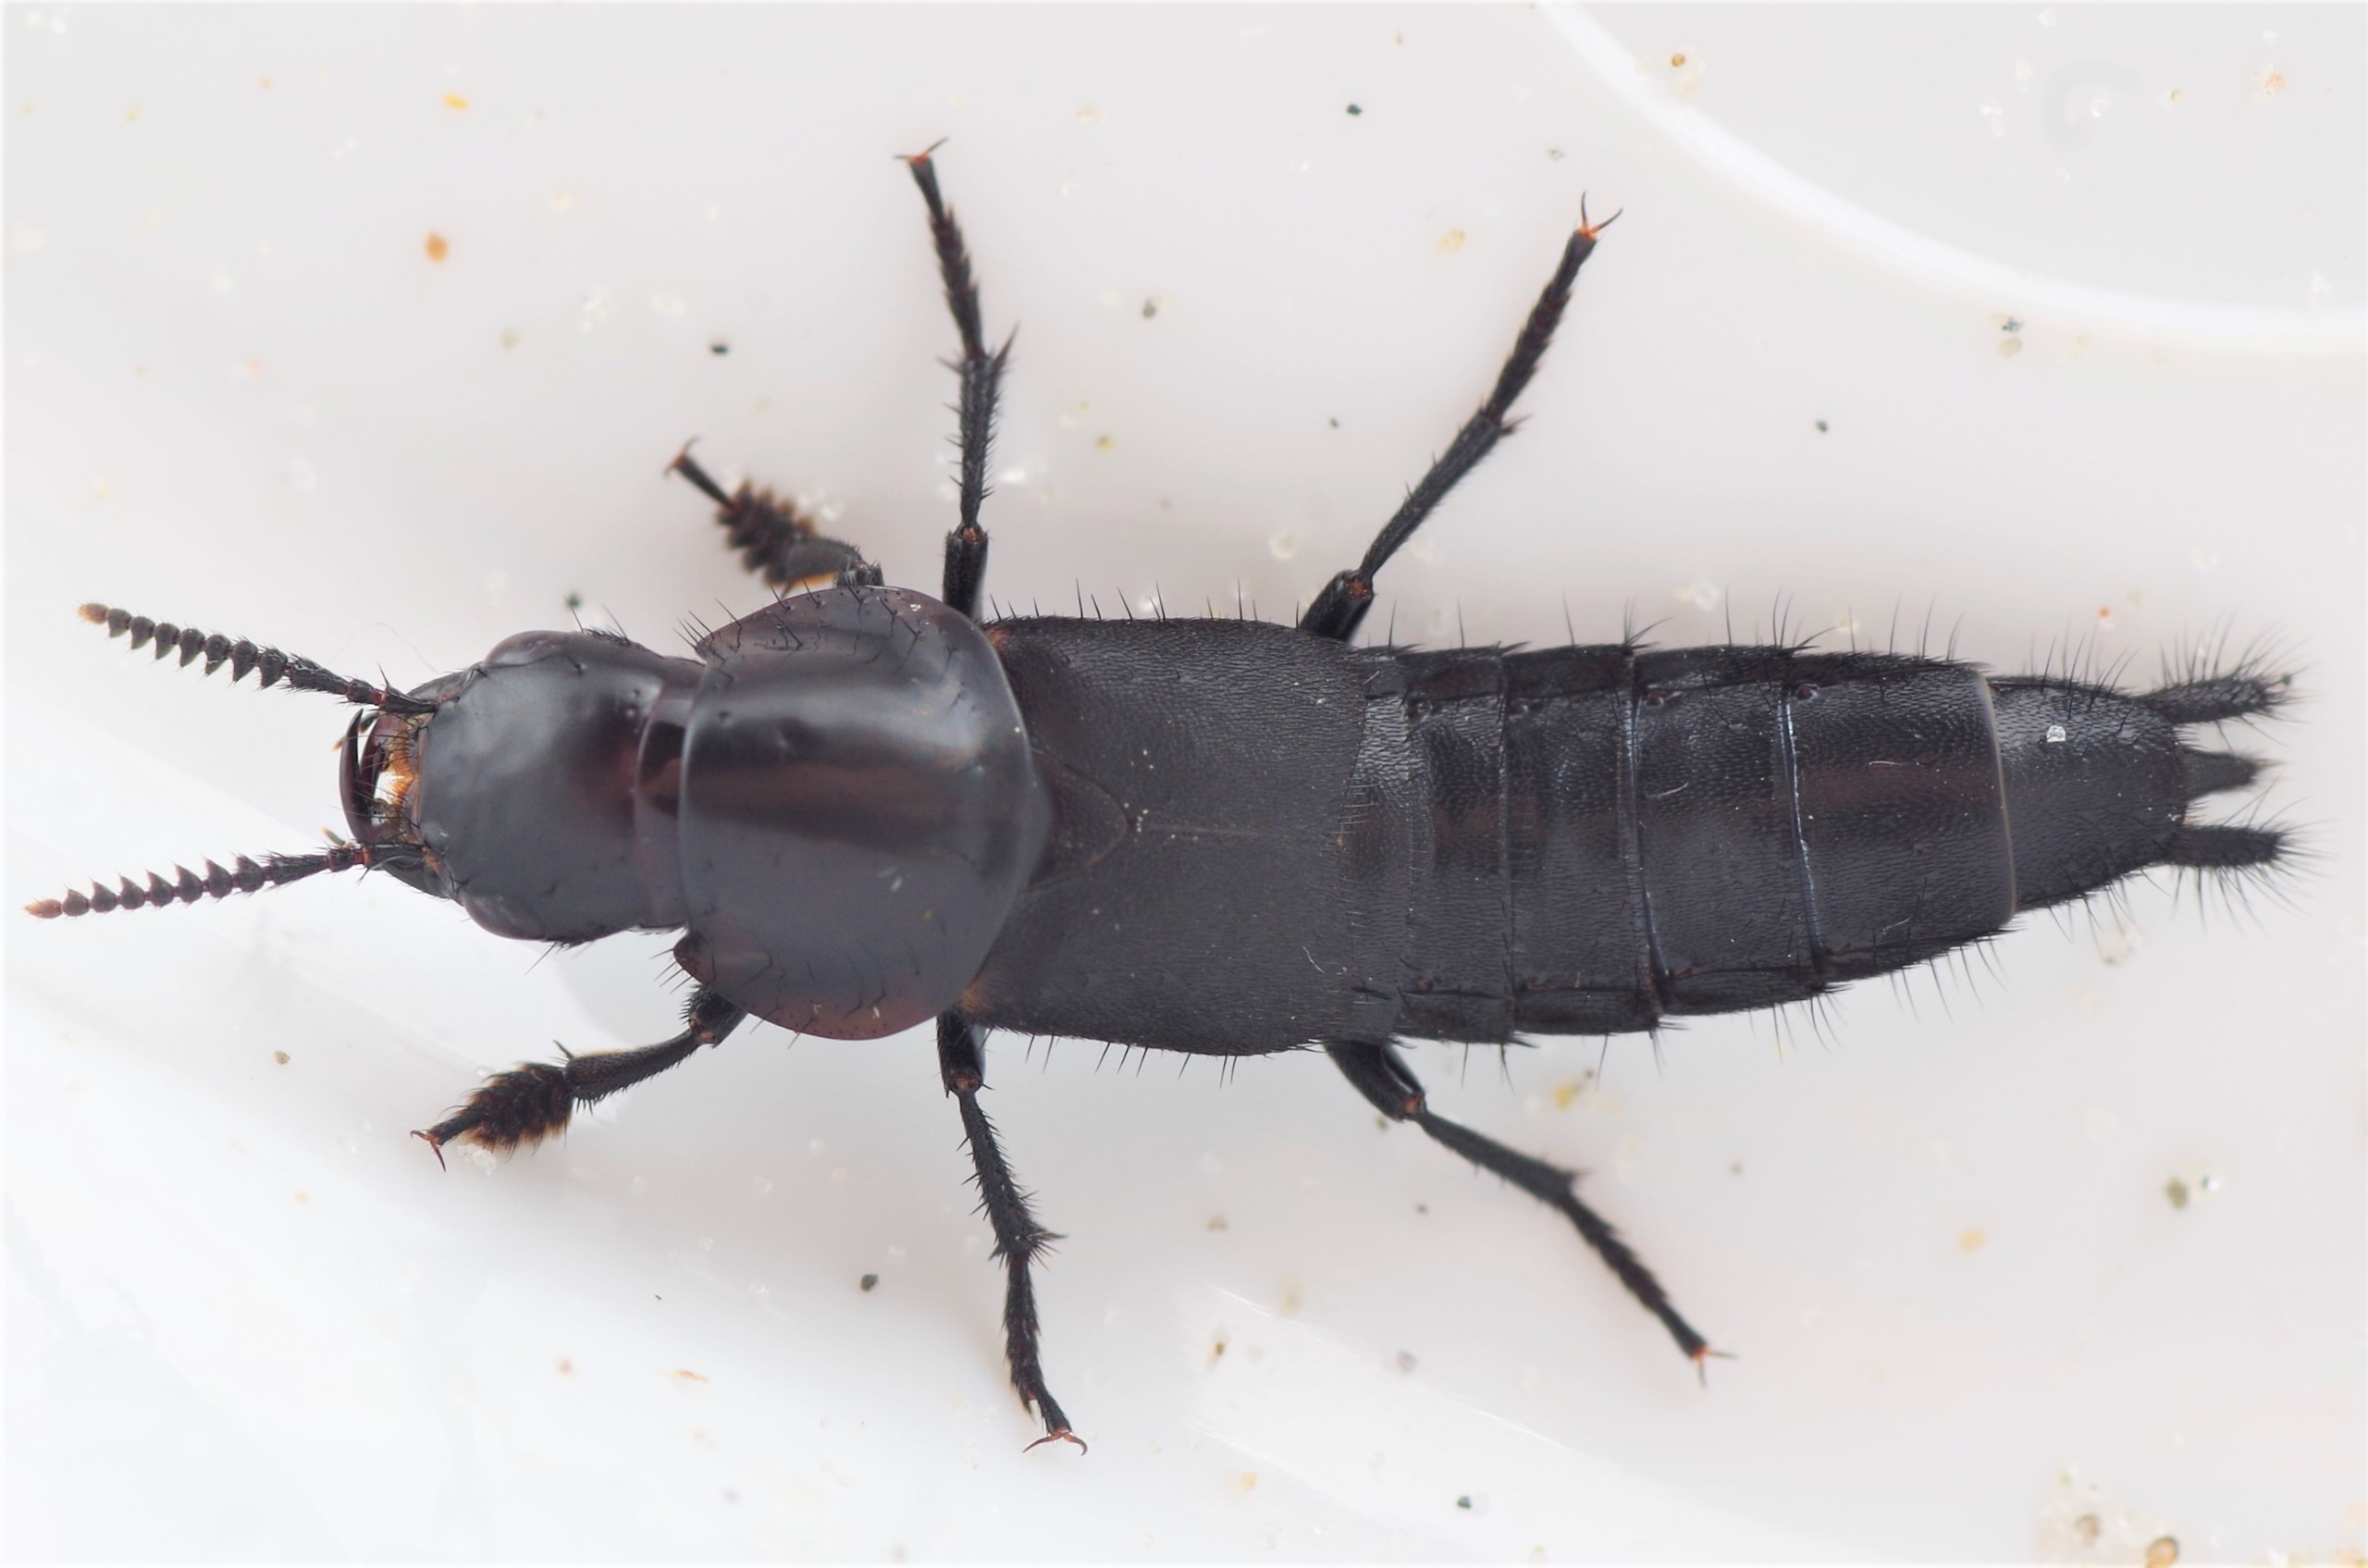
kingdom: Animalia
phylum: Arthropoda
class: Insecta
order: Coleoptera
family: Staphylinidae
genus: Quedius
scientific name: Quedius dilatatus
